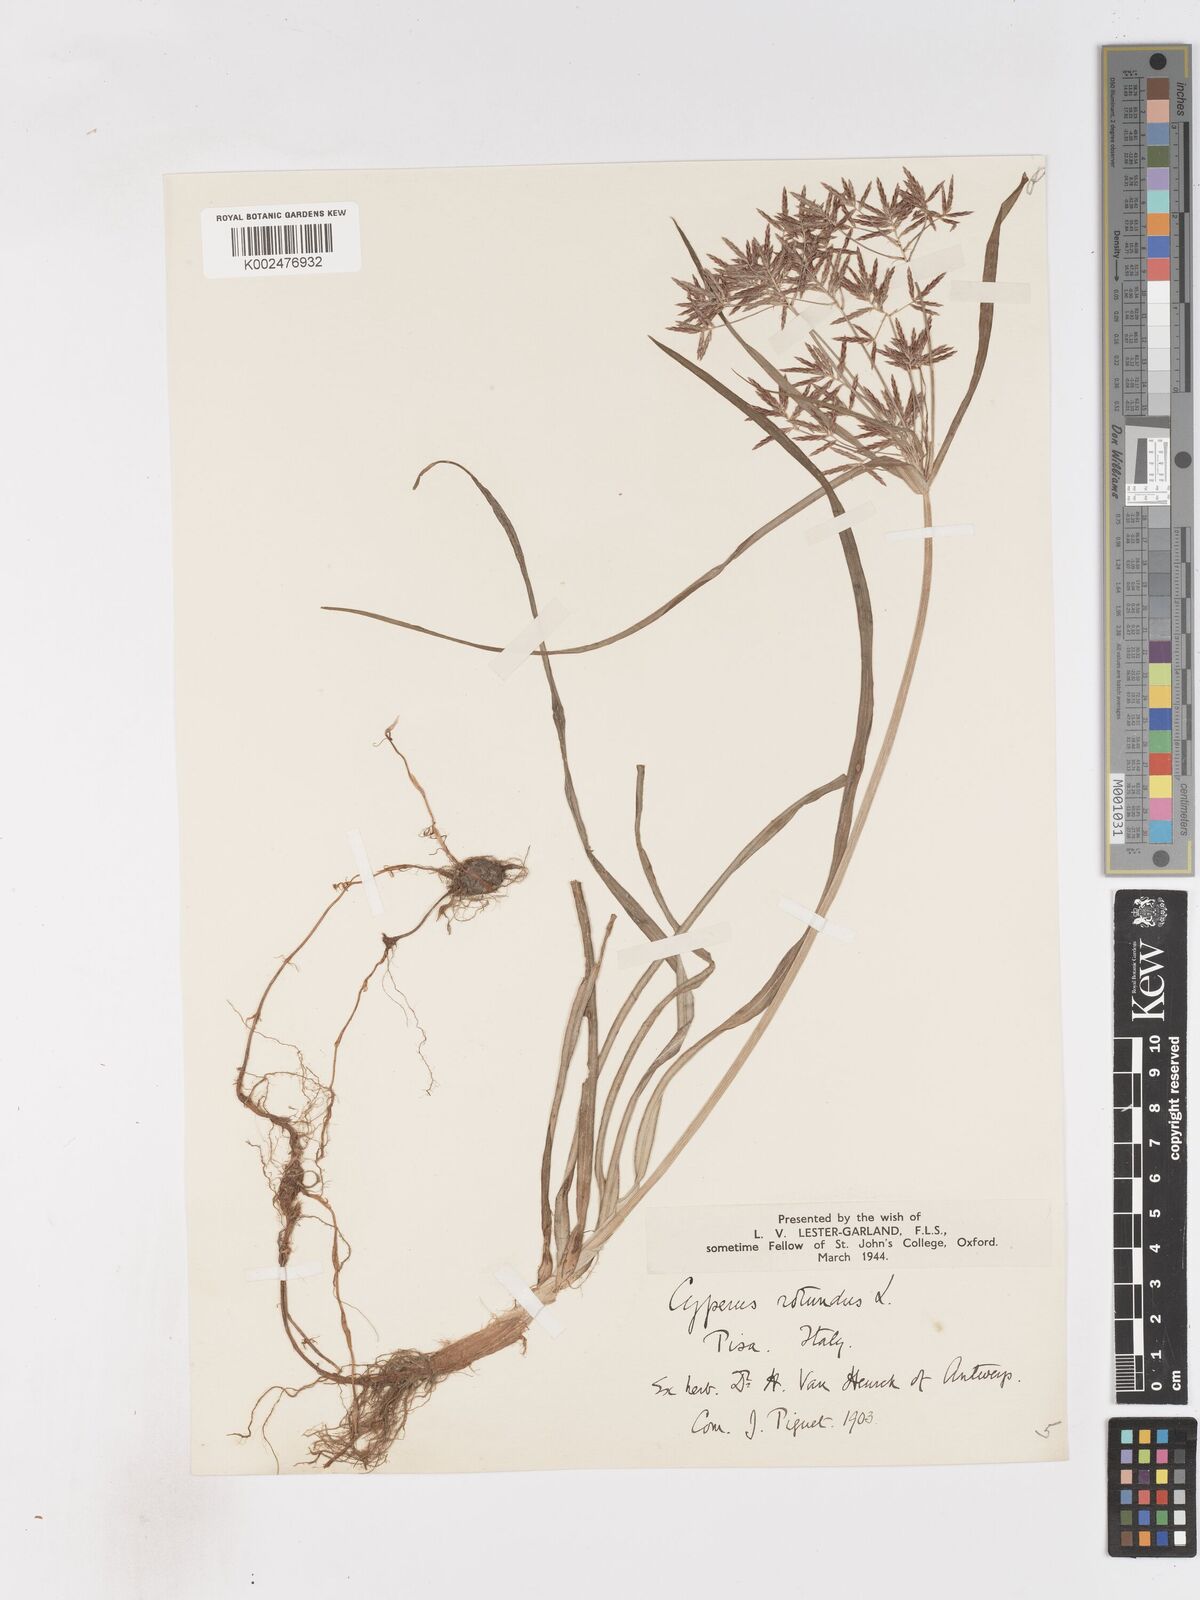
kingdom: Plantae
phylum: Tracheophyta
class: Liliopsida
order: Poales
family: Cyperaceae
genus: Cyperus
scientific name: Cyperus rotundus
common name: Nutgrass
